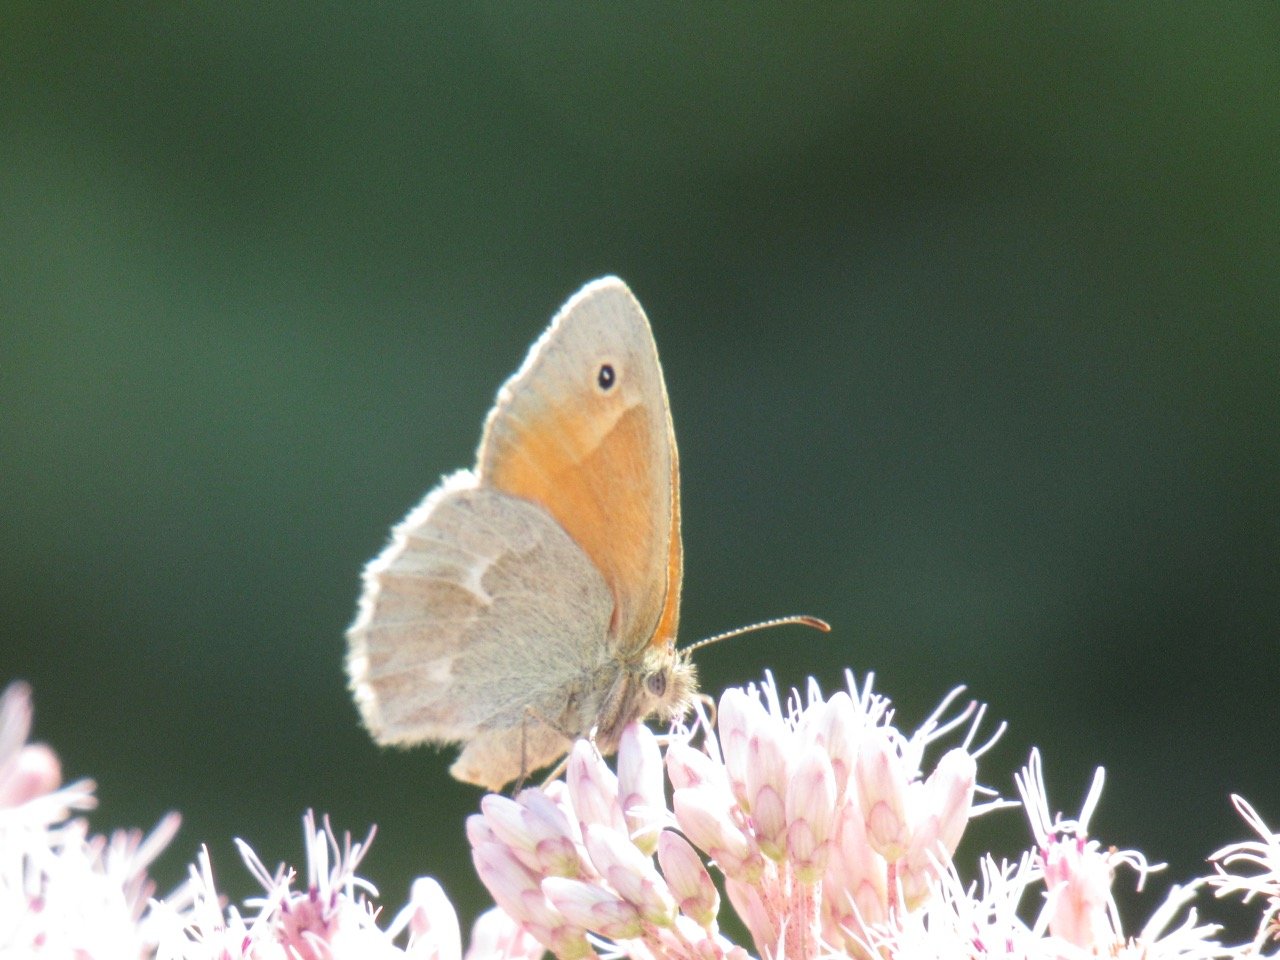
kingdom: Animalia
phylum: Arthropoda
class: Insecta
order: Lepidoptera
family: Nymphalidae
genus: Coenonympha
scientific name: Coenonympha tullia
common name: Large Heath
